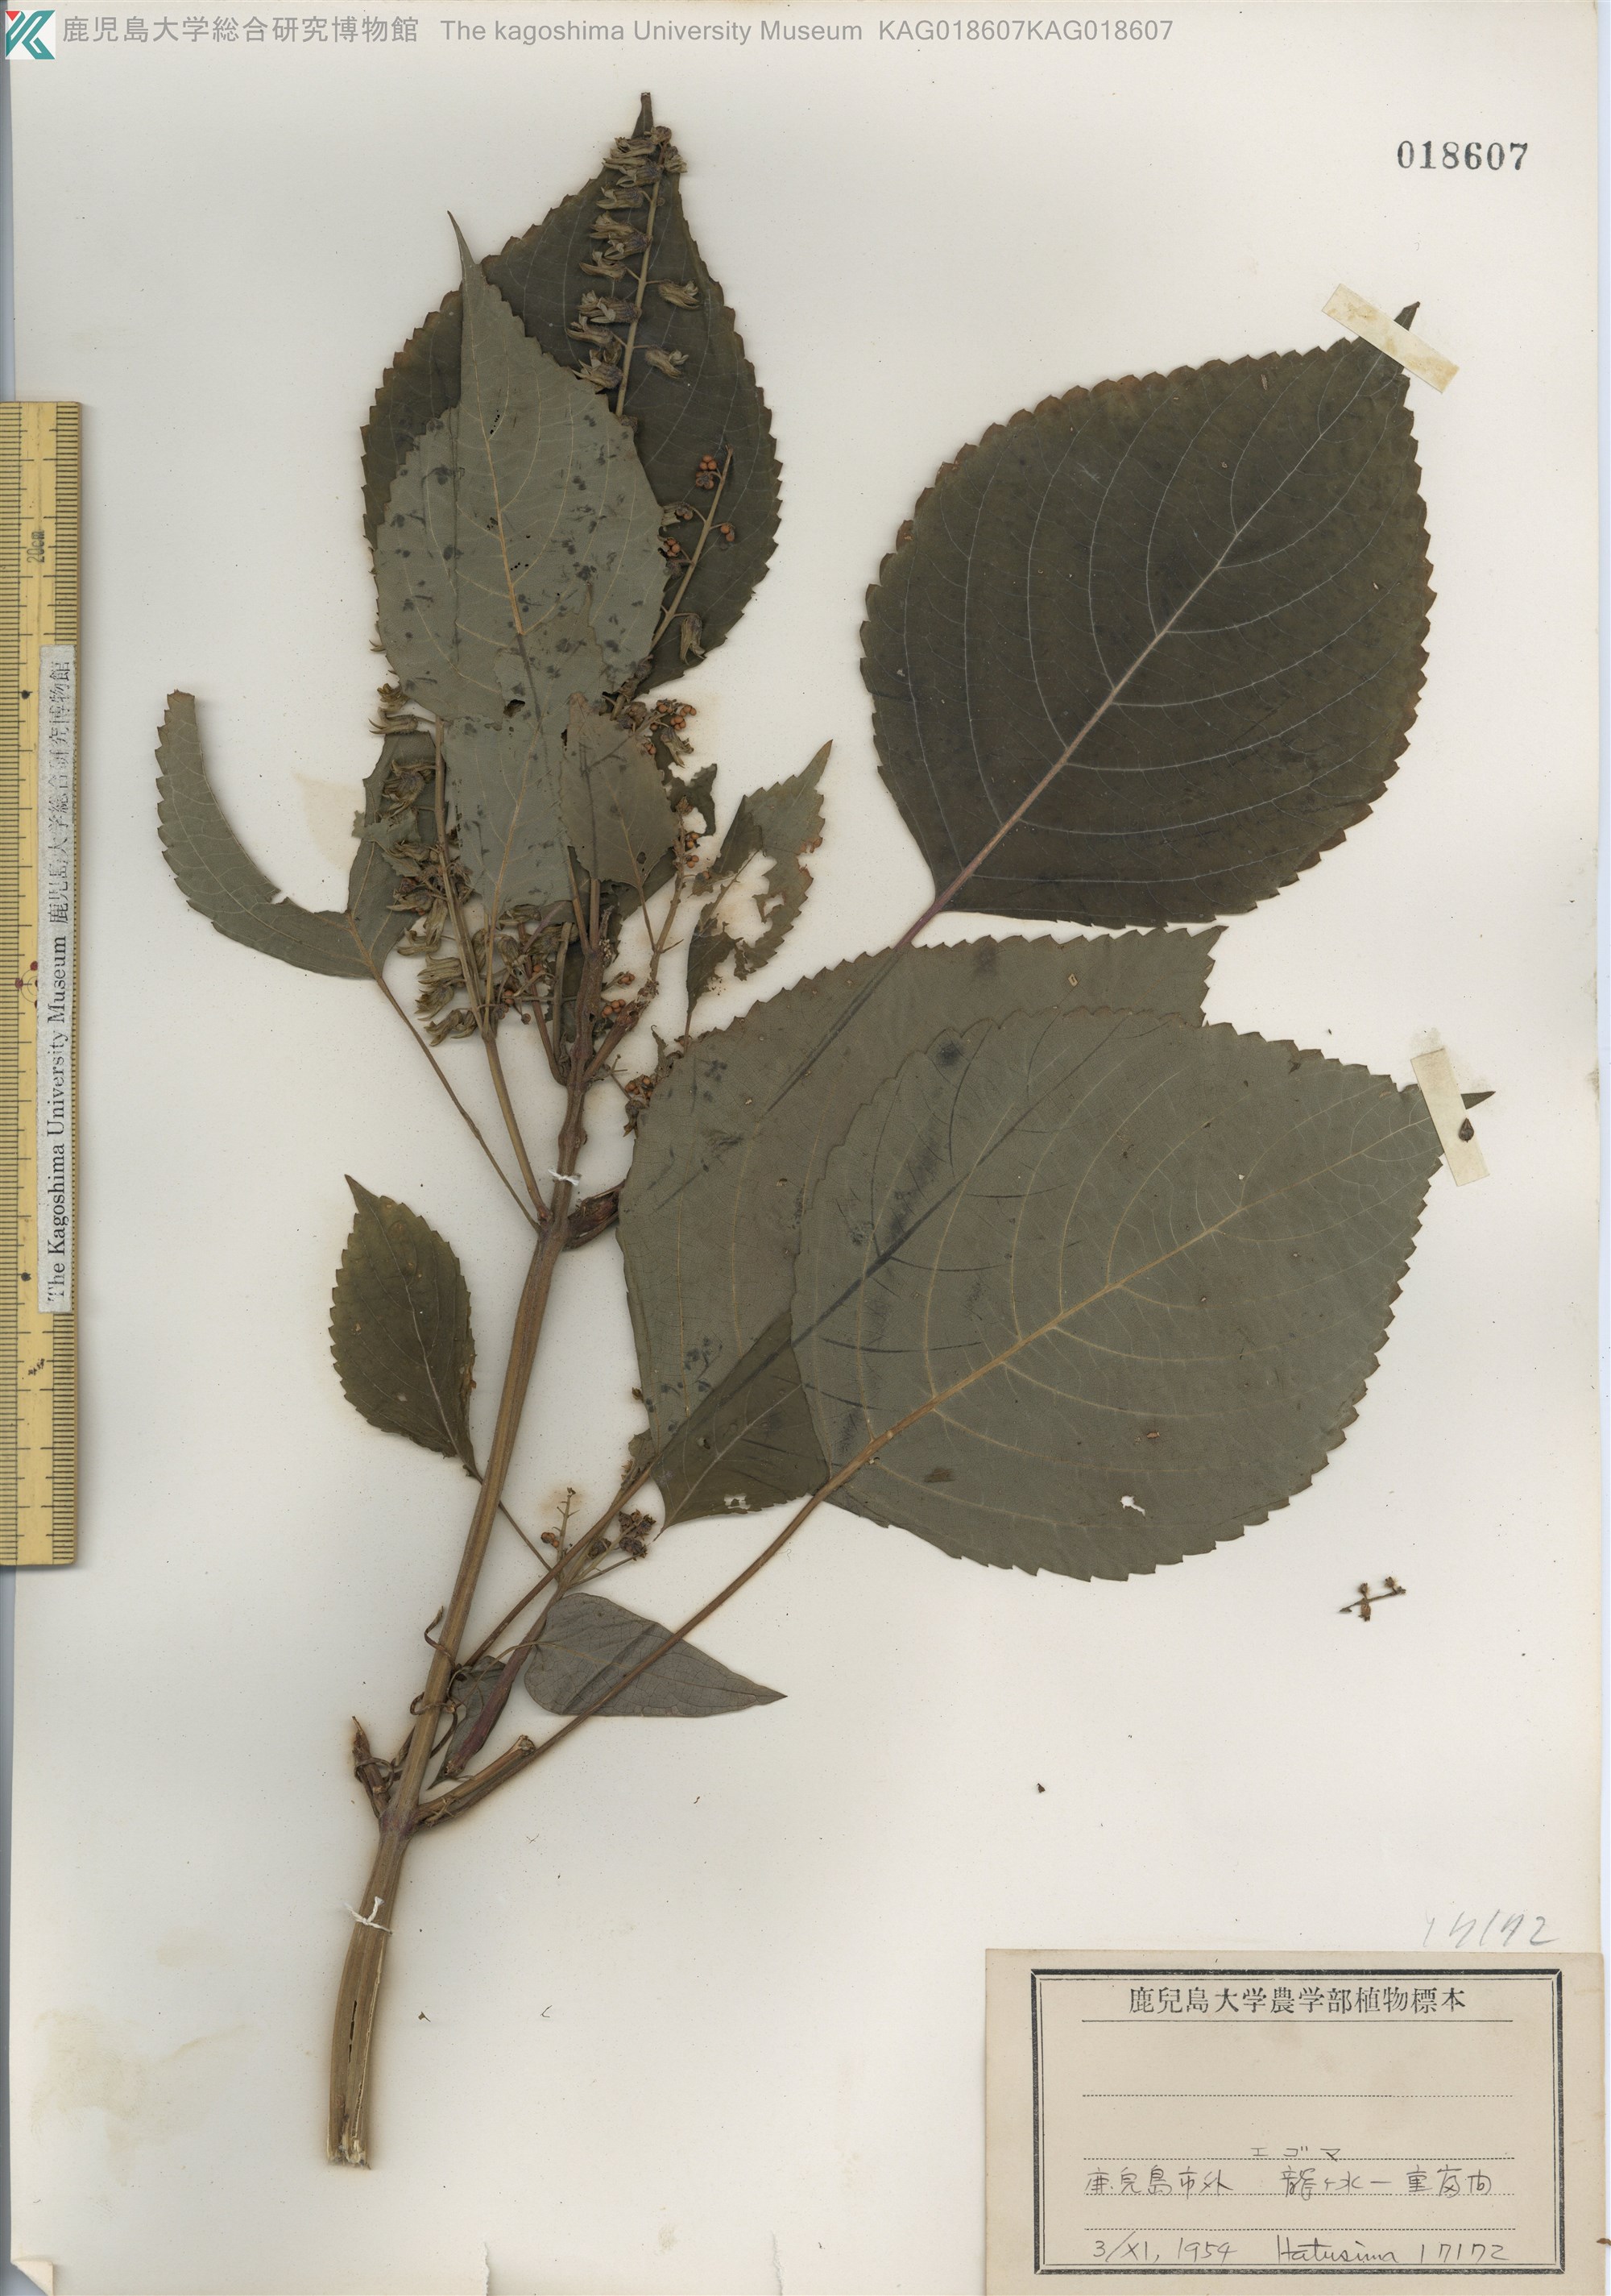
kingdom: Plantae
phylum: Tracheophyta
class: Magnoliopsida
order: Lamiales
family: Lamiaceae
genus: Perilla
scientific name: Perilla frutescens
